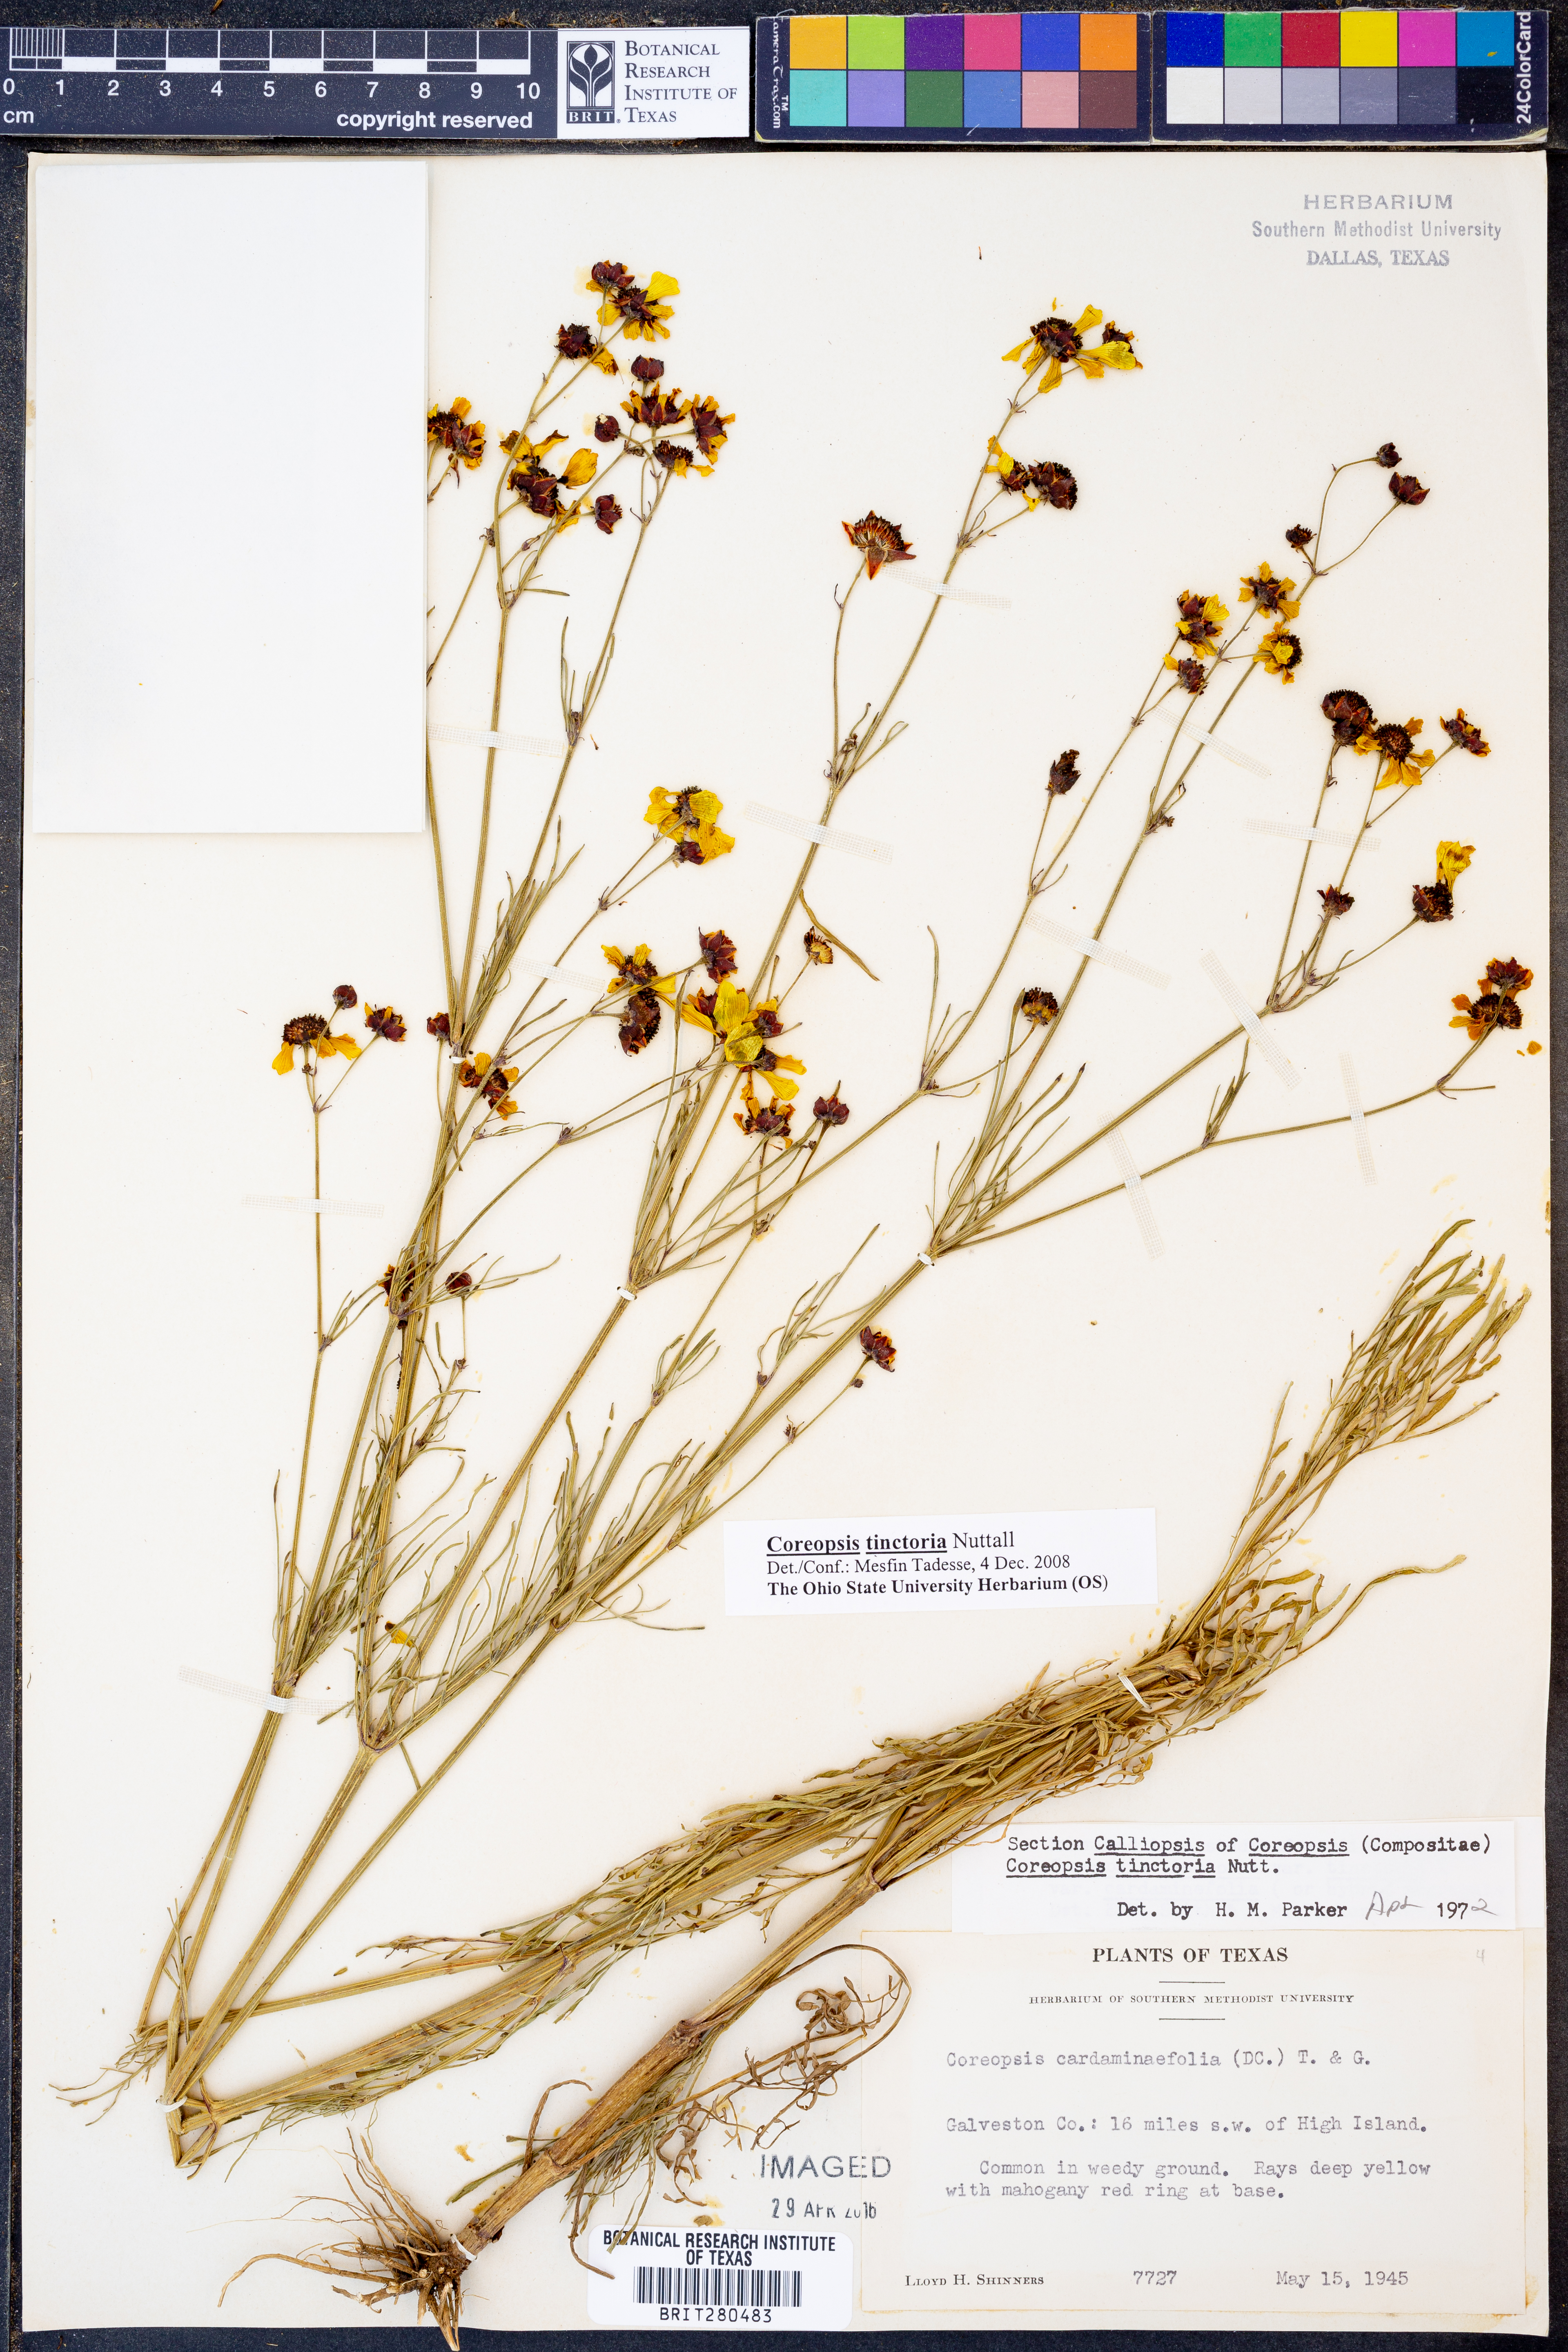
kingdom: Plantae
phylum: Tracheophyta
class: Magnoliopsida
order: Asterales
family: Asteraceae
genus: Coreopsis
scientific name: Coreopsis tinctoria
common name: Garden tickseed
